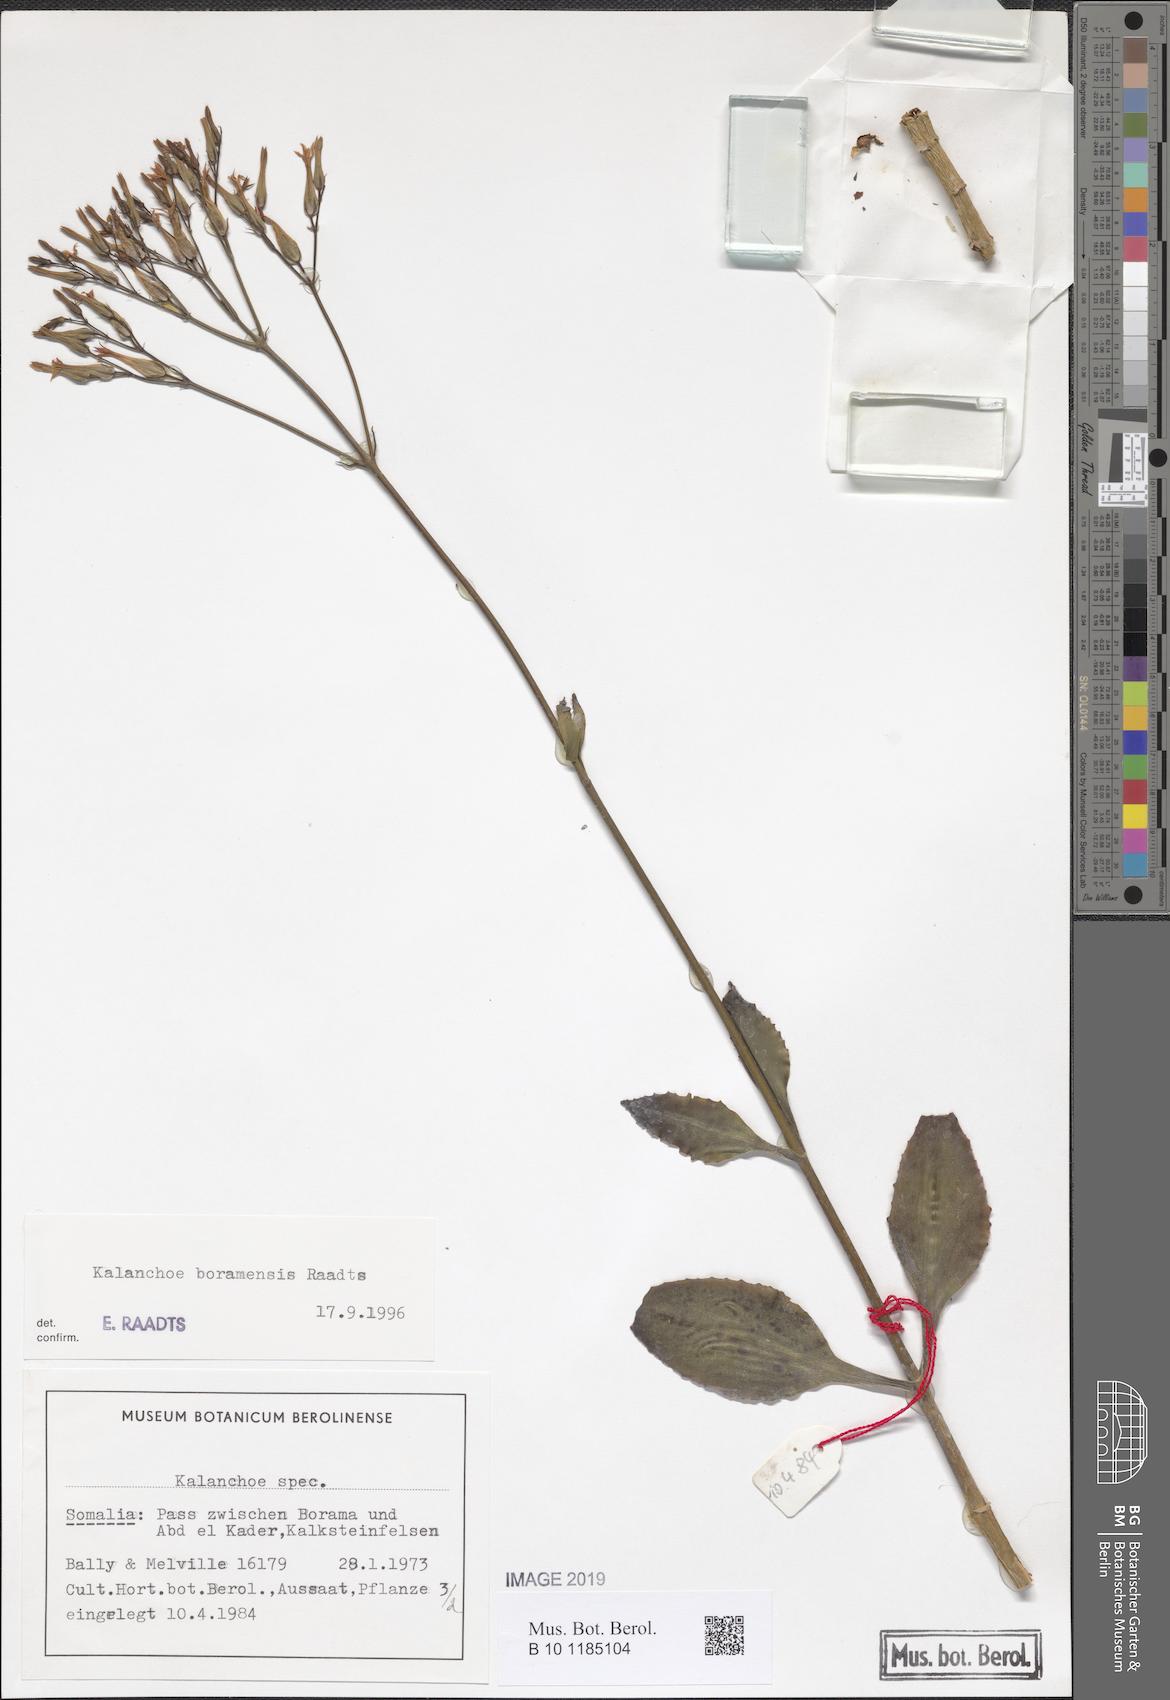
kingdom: Plantae
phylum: Tracheophyta
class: Magnoliopsida
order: Saxifragales
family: Crassulaceae
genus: Kalanchoe
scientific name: Kalanchoe
